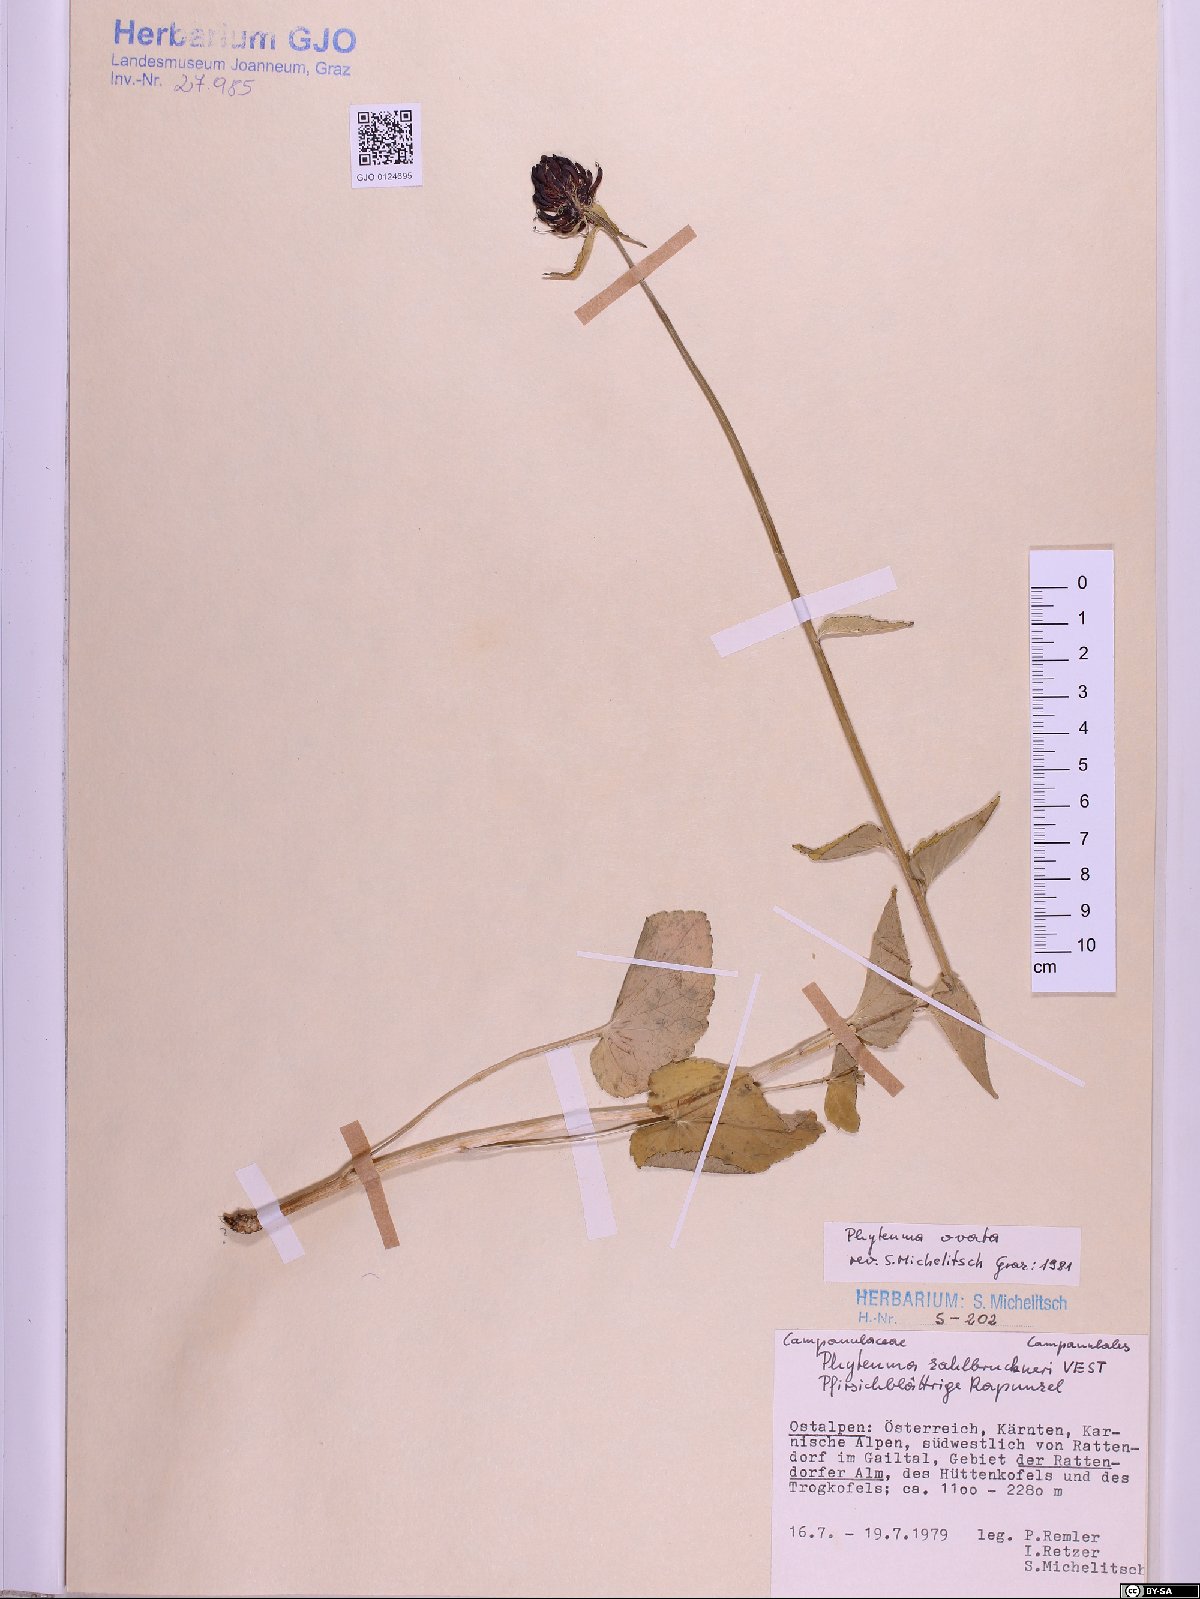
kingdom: Plantae
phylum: Tracheophyta
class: Magnoliopsida
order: Asterales
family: Campanulaceae
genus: Phyteuma
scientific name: Phyteuma ovatum
